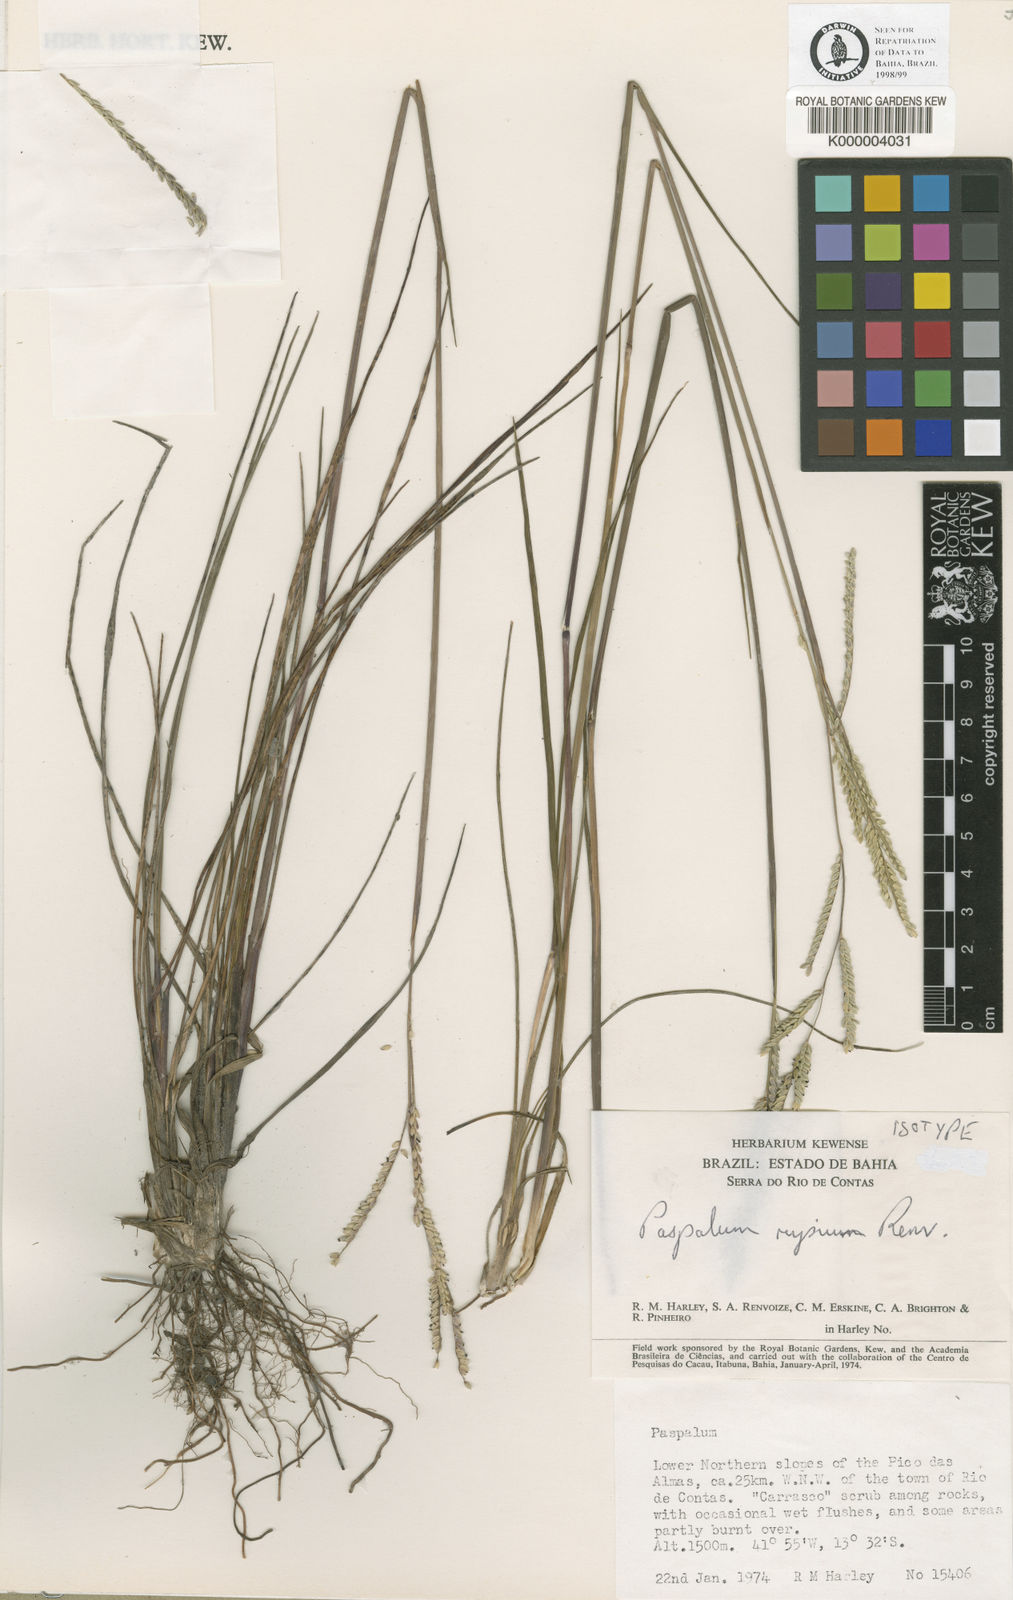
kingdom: Plantae
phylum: Tracheophyta
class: Liliopsida
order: Poales
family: Poaceae
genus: Paspalum
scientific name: Paspalum rupium
